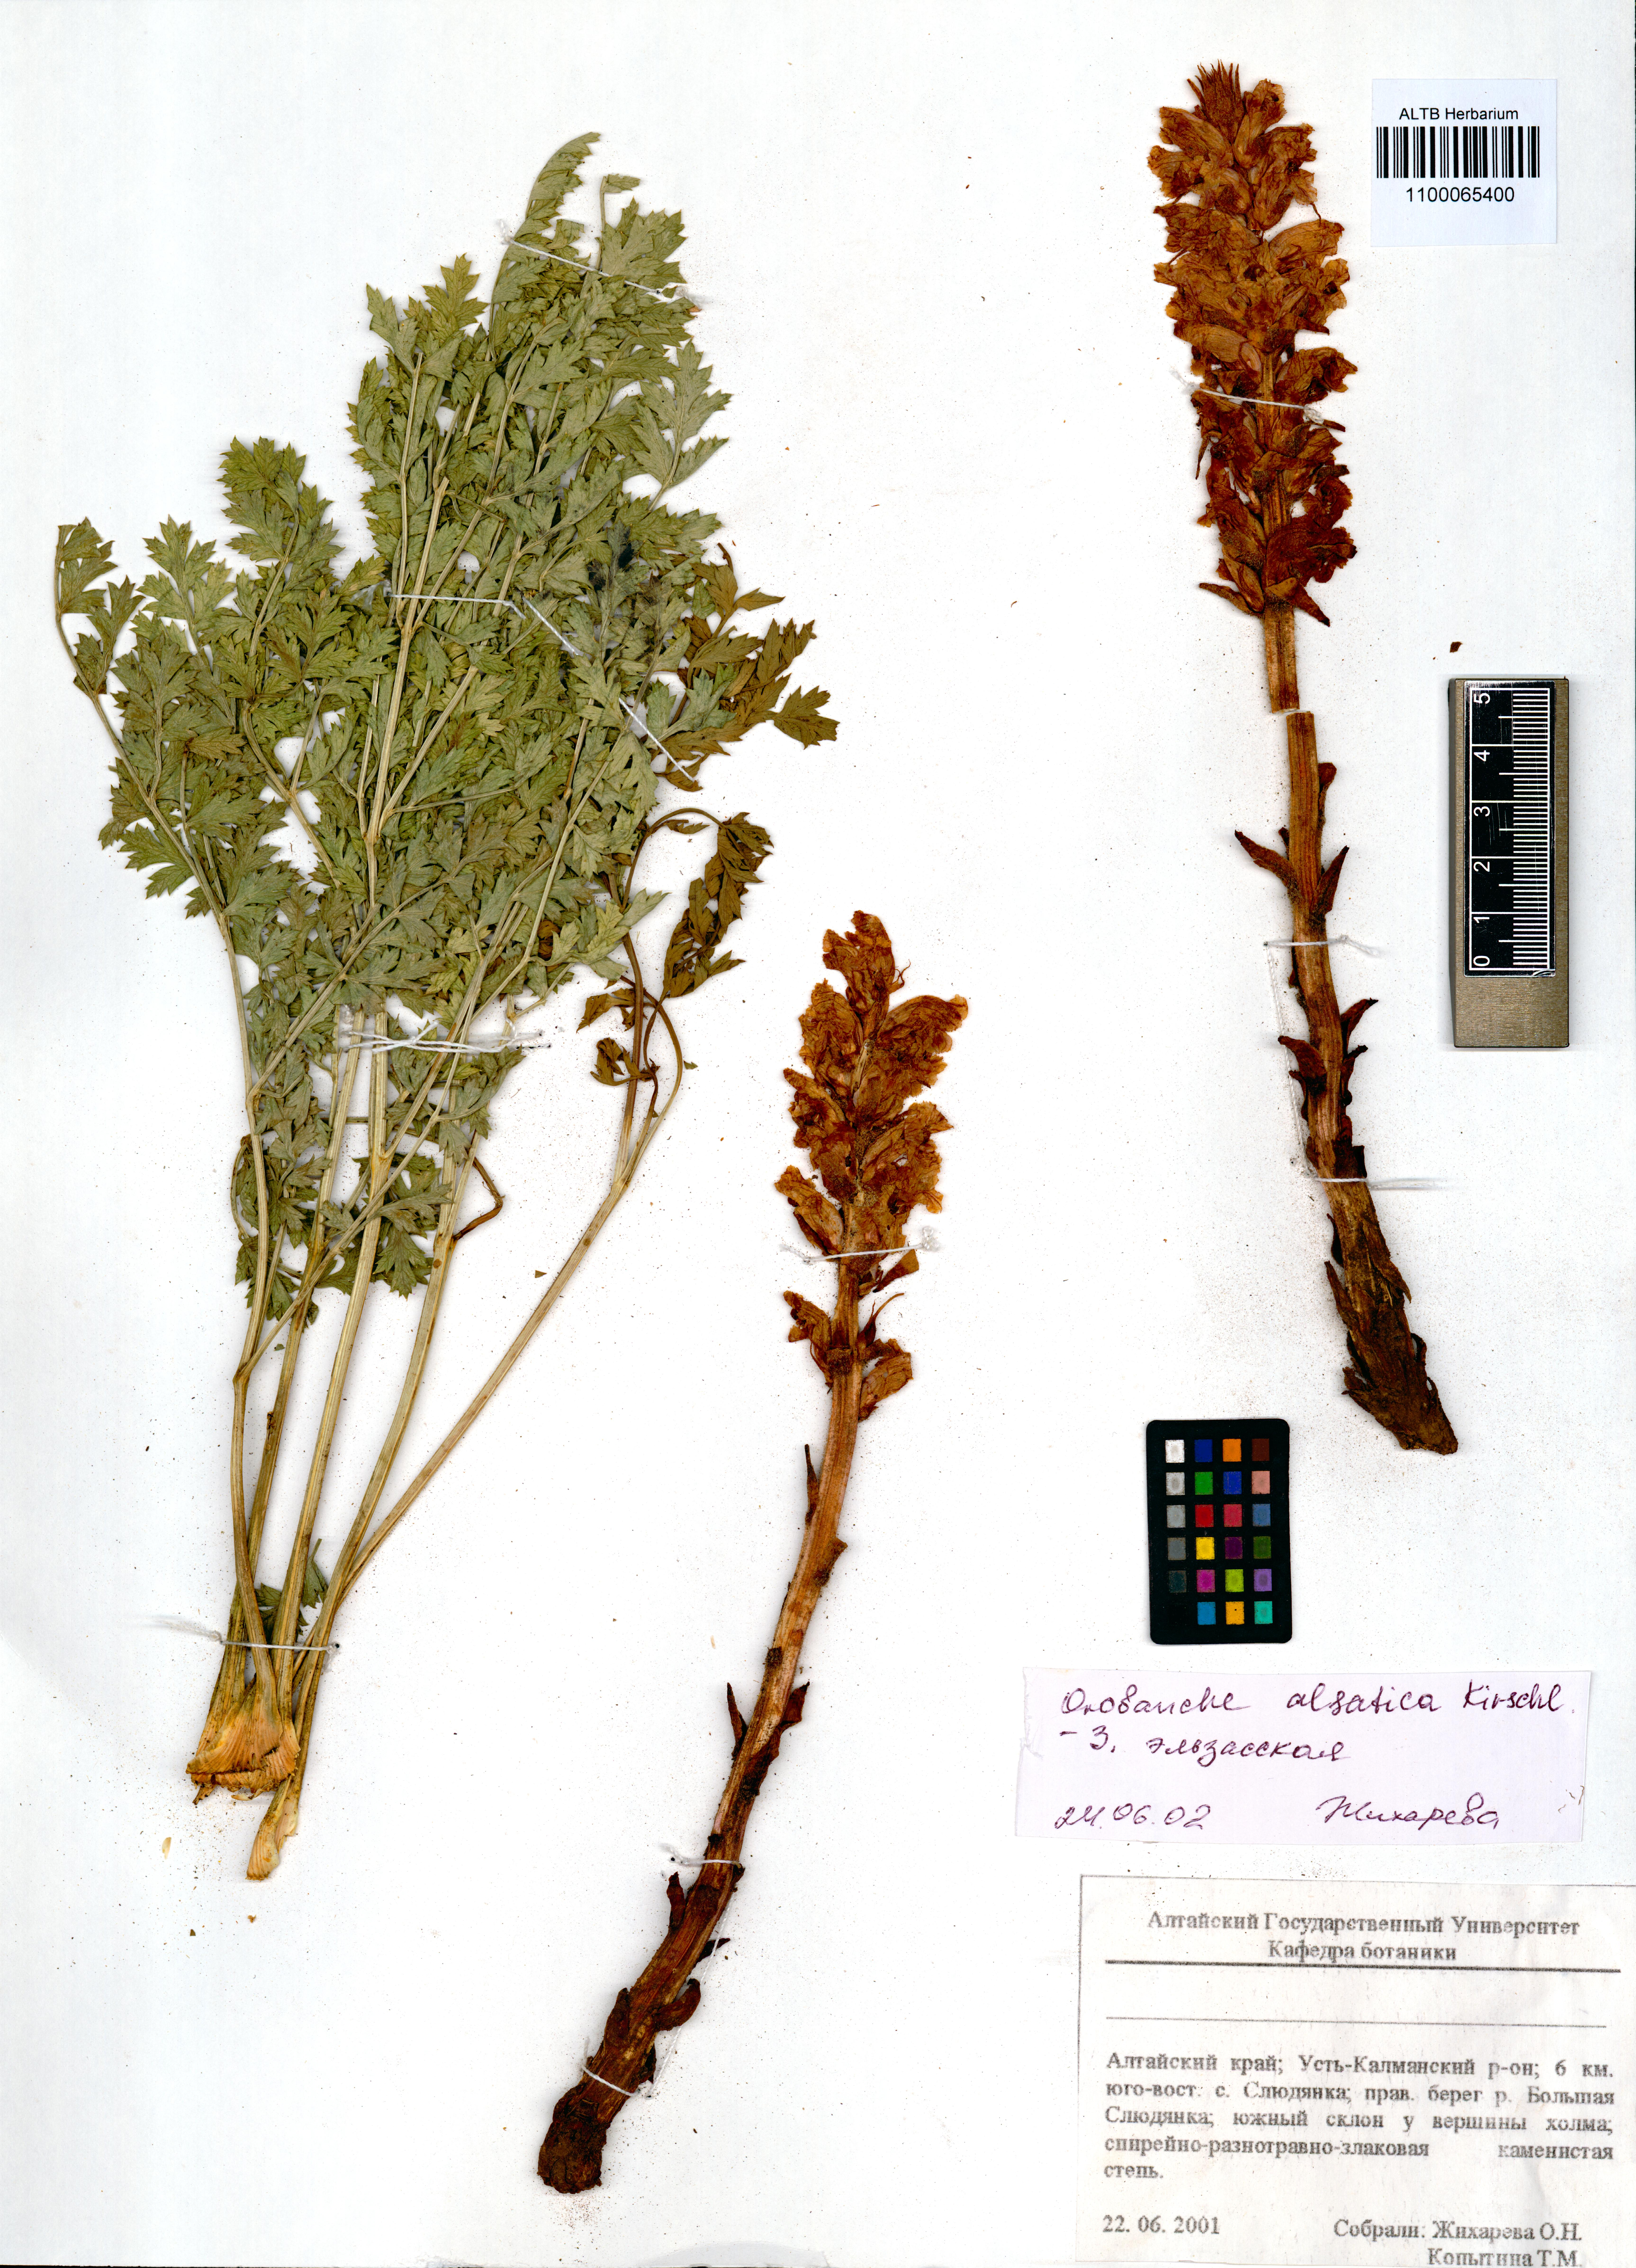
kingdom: Plantae
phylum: Tracheophyta
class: Magnoliopsida
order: Lamiales
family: Orobanchaceae
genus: Orobanche
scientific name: Orobanche alsatica
